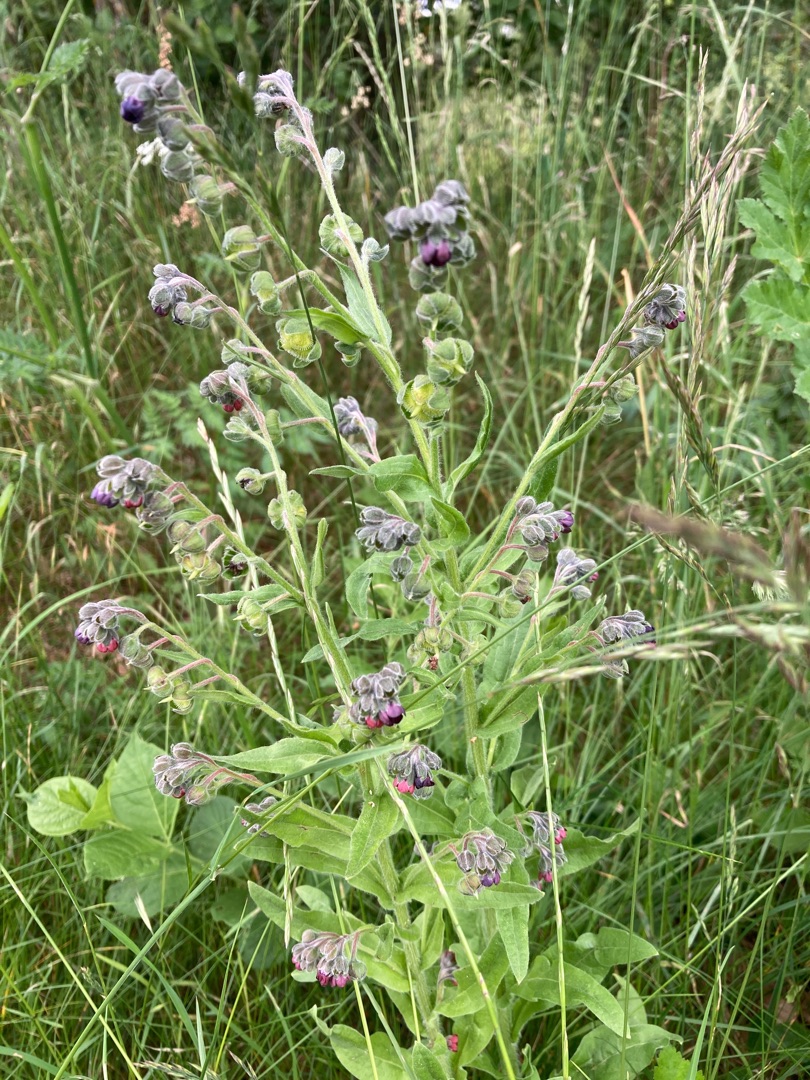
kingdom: Plantae
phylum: Tracheophyta
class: Magnoliopsida
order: Boraginales
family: Boraginaceae
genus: Cynoglossum
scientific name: Cynoglossum officinale
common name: Hundetunge
